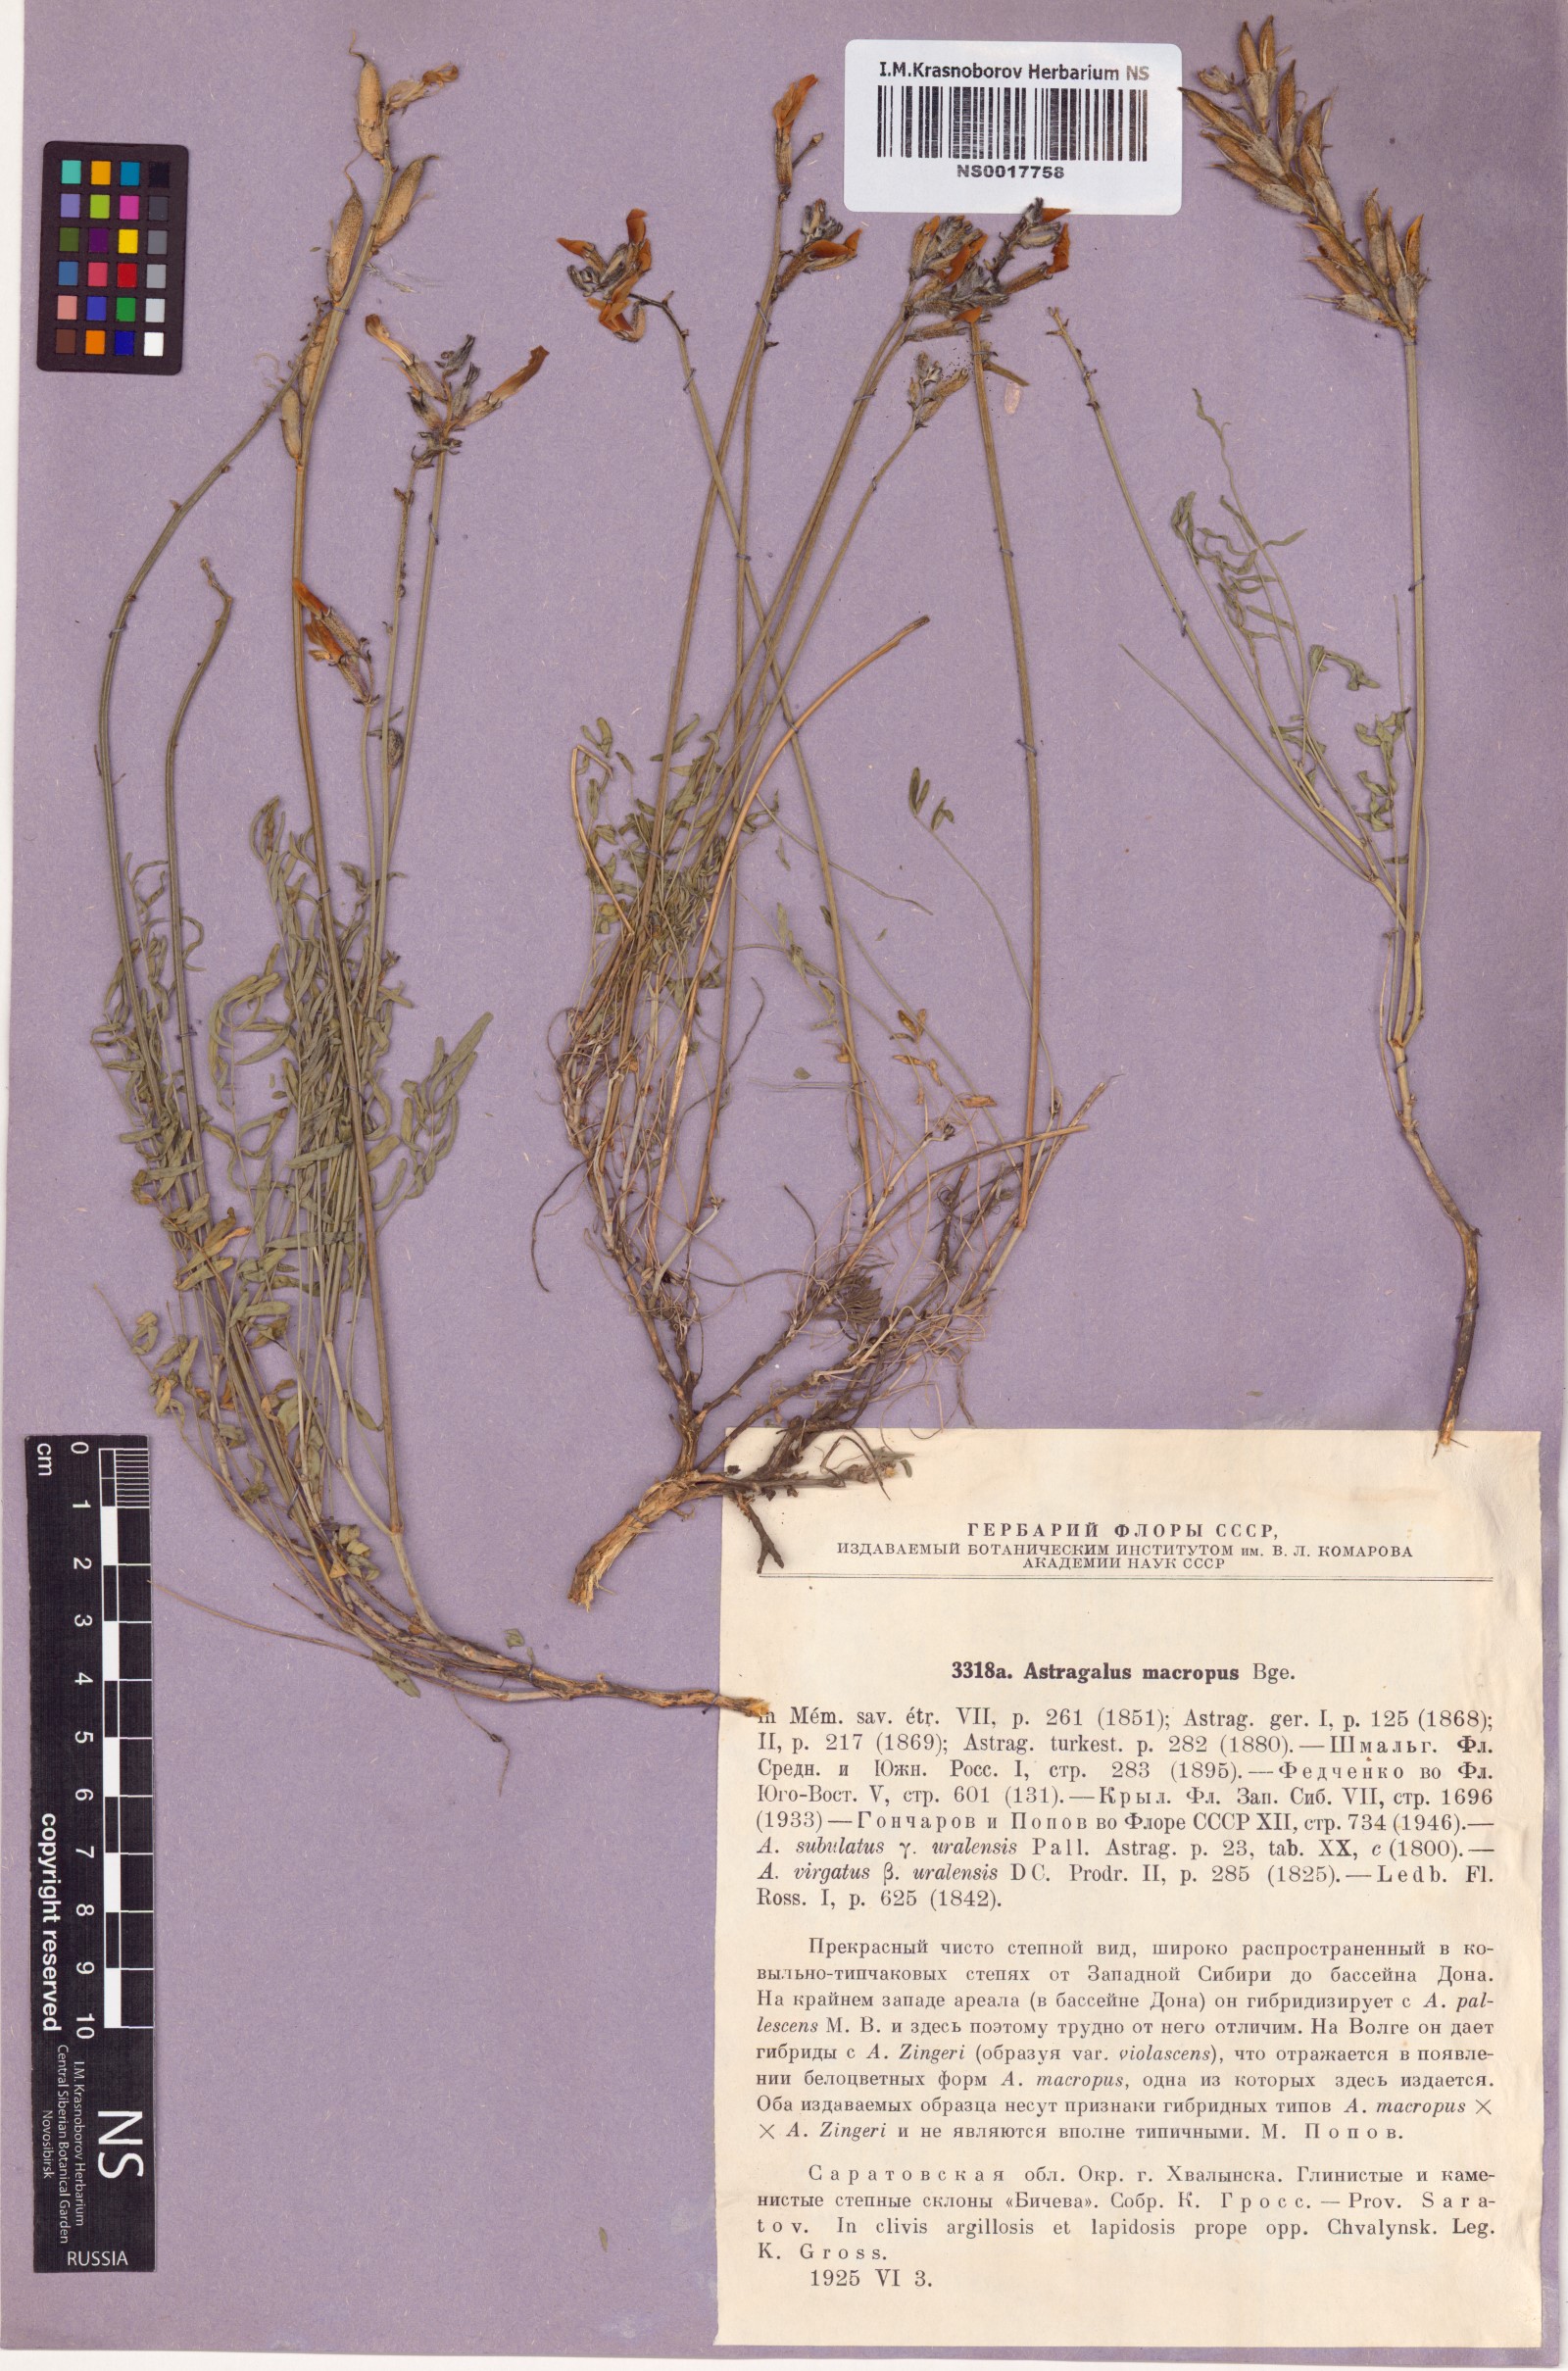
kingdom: Plantae
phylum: Tracheophyta
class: Magnoliopsida
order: Fabales
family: Fabaceae
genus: Astragalus
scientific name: Astragalus macropus
